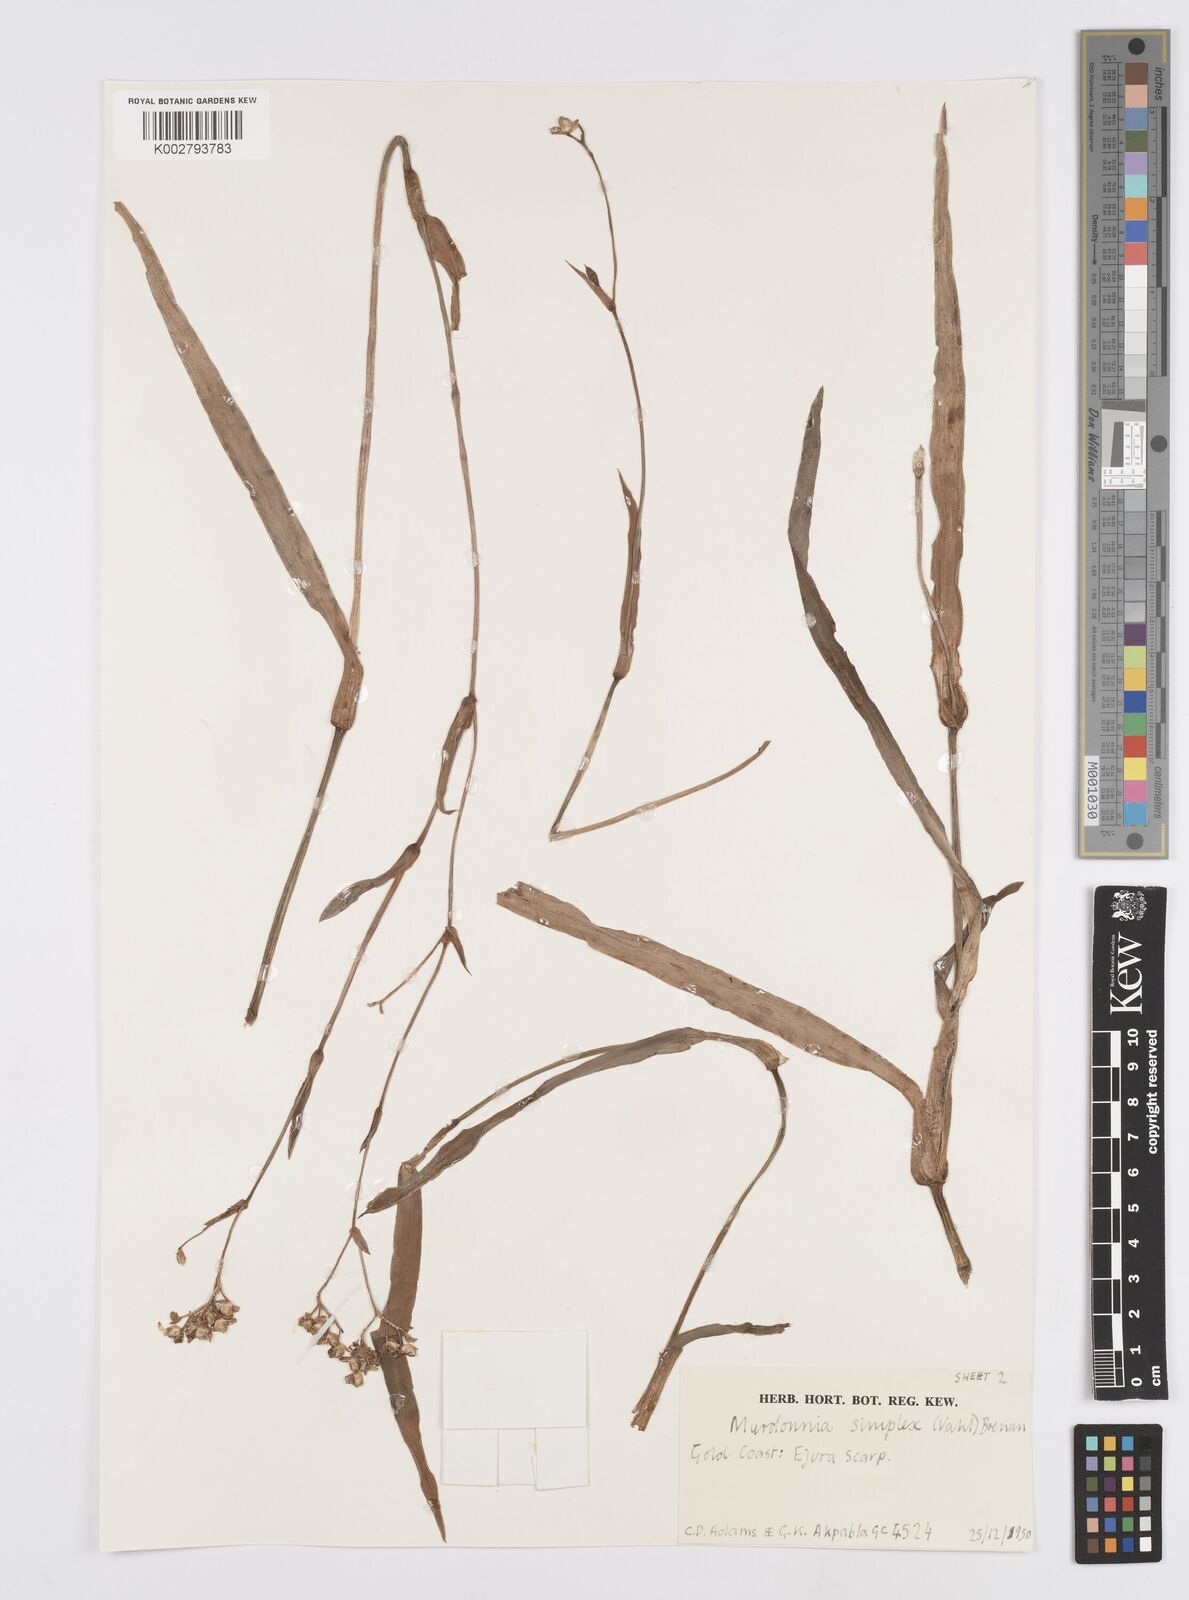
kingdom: Plantae
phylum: Tracheophyta
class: Liliopsida
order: Commelinales
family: Commelinaceae
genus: Murdannia
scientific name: Murdannia simplex
